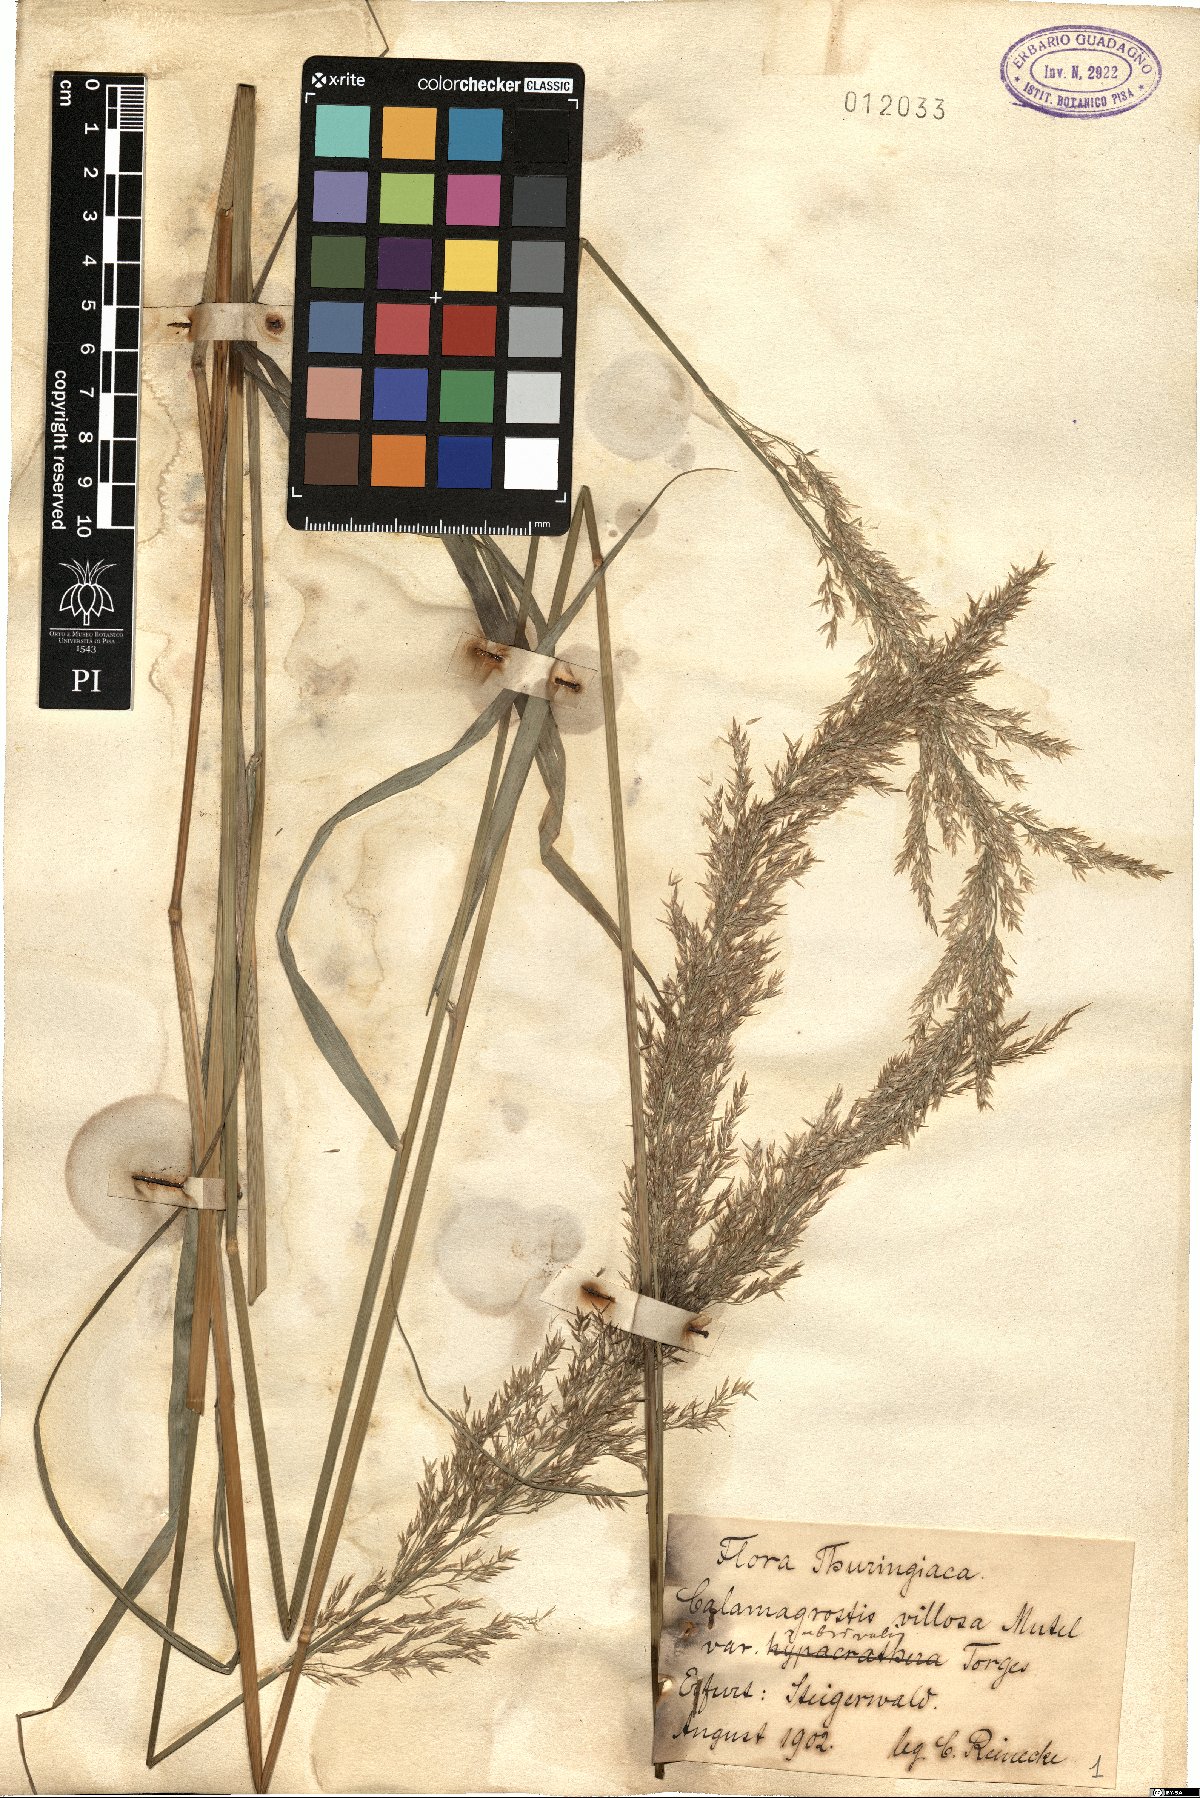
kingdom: Plantae
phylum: Tracheophyta
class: Liliopsida
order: Poales
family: Poaceae
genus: Calamagrostis
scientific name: Calamagrostis villosa
